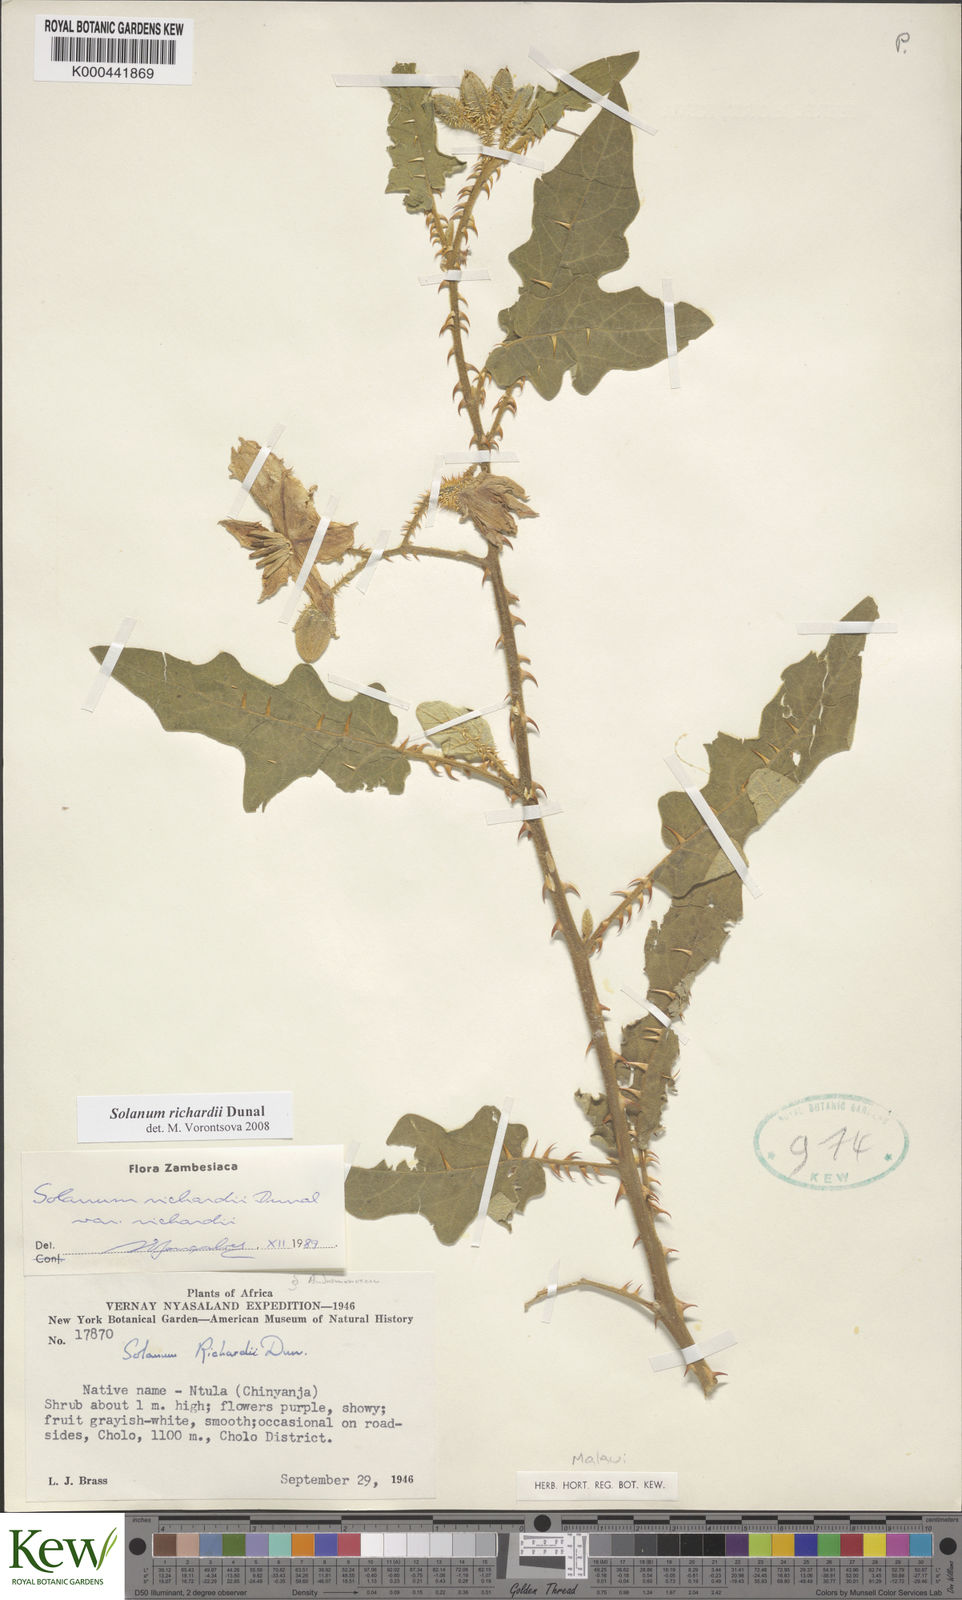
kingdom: Plantae
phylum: Tracheophyta
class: Magnoliopsida
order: Solanales
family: Solanaceae
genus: Solanum
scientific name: Solanum richardii
